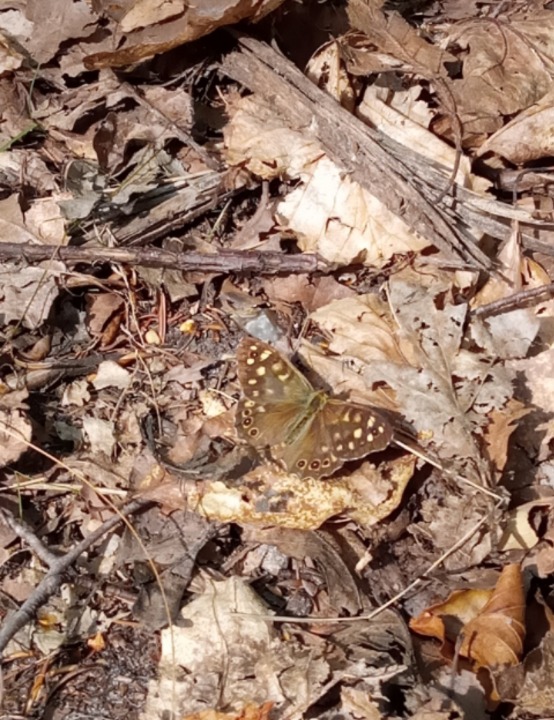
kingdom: Animalia
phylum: Arthropoda
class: Insecta
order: Lepidoptera
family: Nymphalidae
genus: Pararge
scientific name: Pararge aegeria
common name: Skovrandøje
